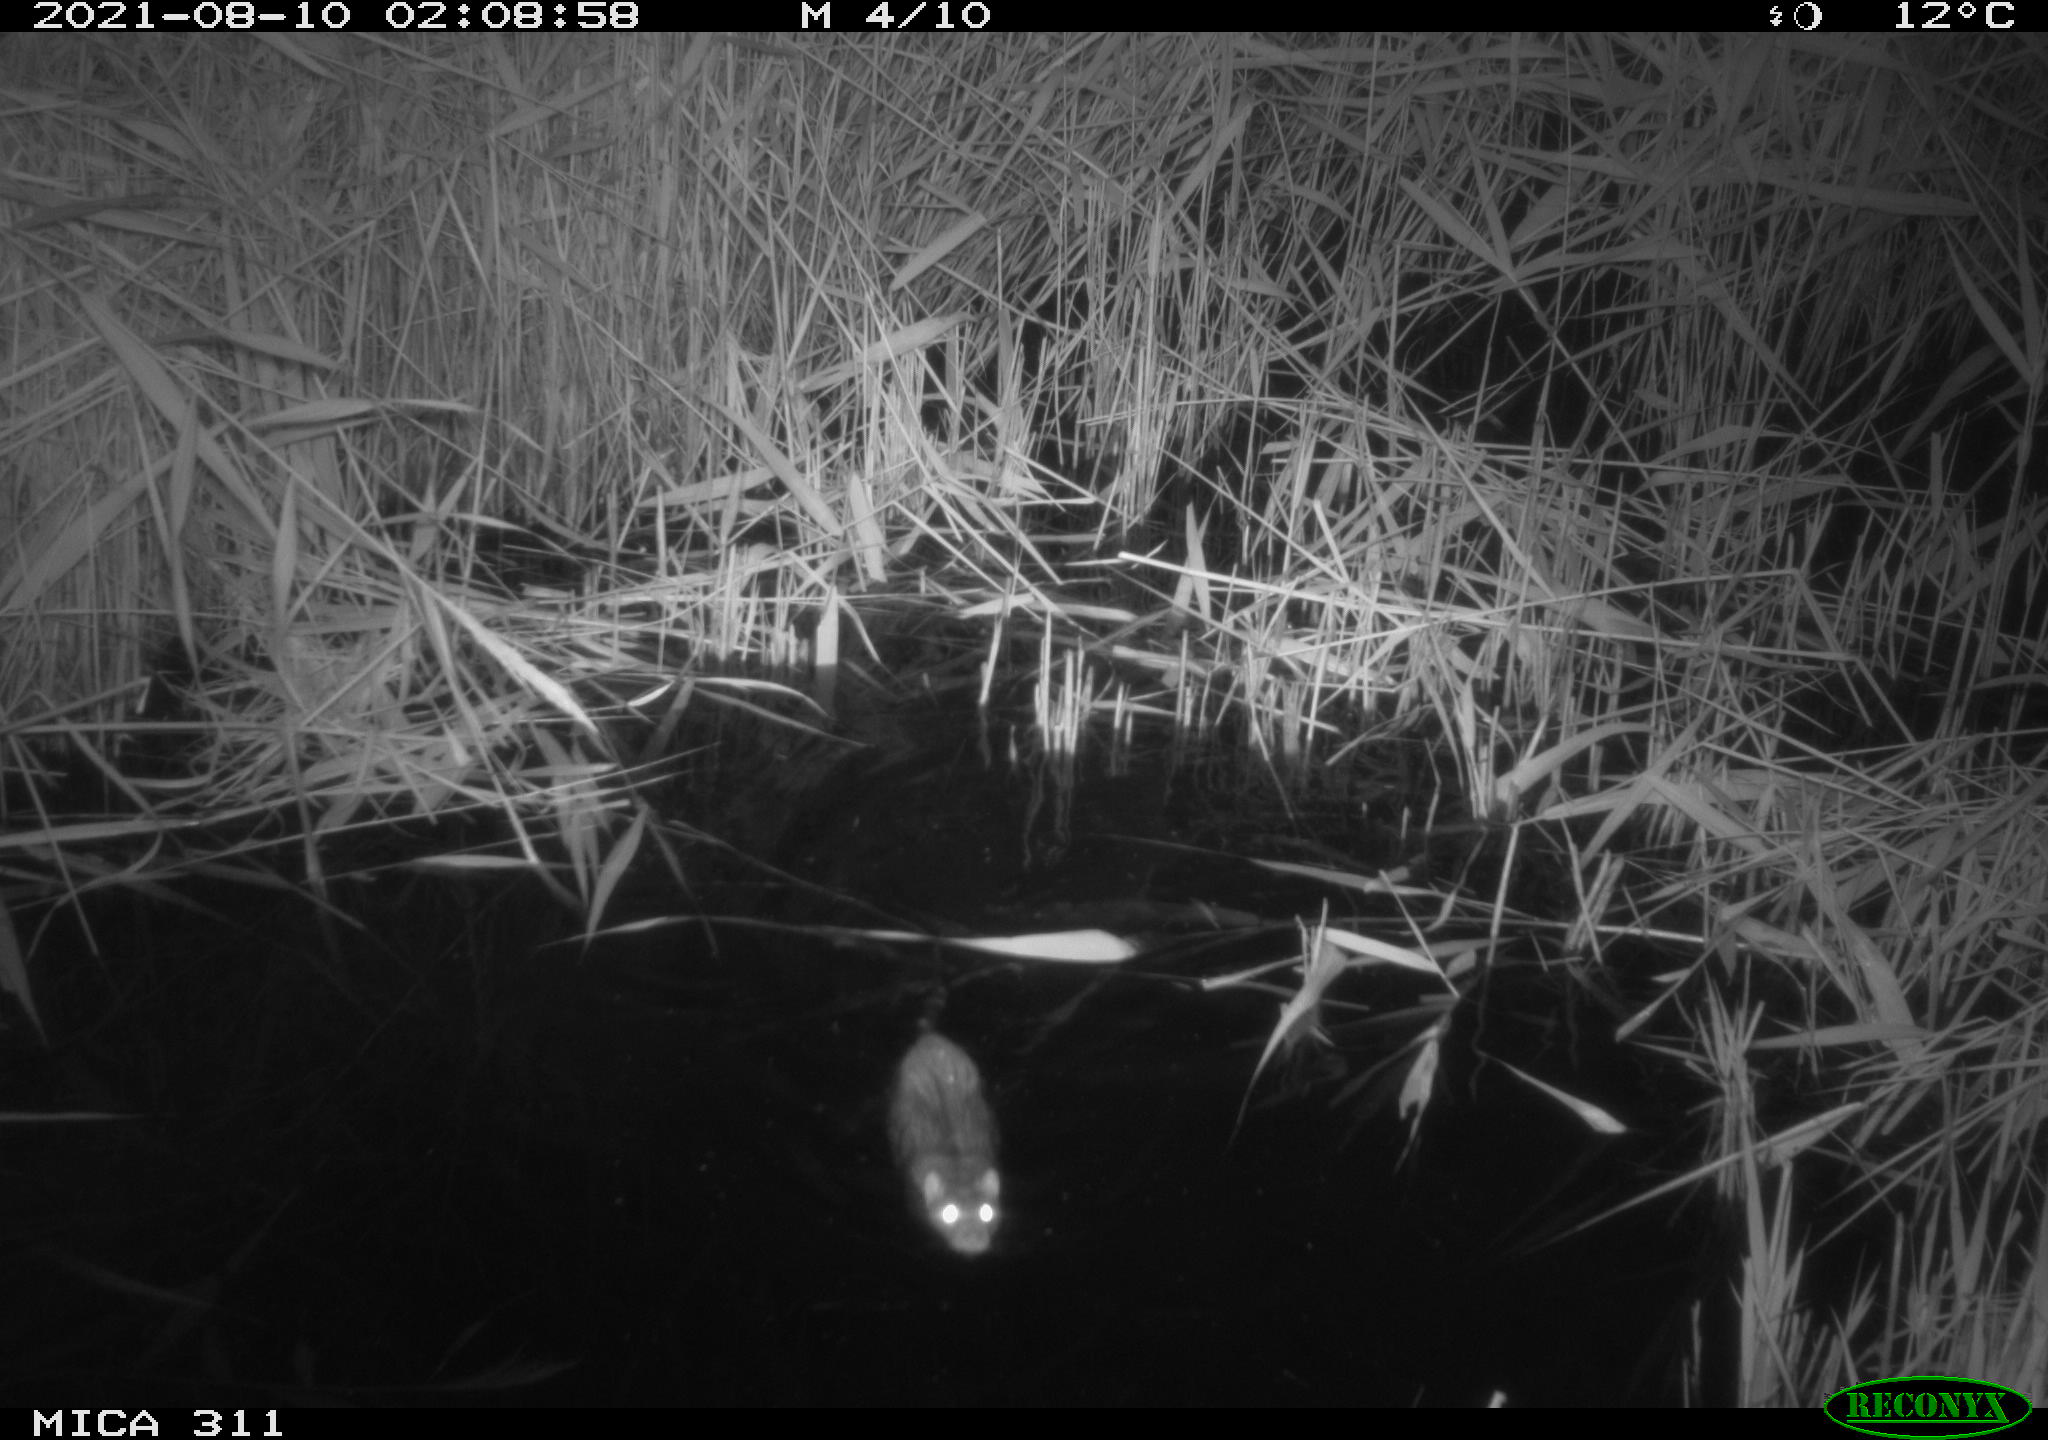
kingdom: Animalia
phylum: Chordata
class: Mammalia
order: Rodentia
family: Muridae
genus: Rattus
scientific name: Rattus norvegicus
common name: Brown rat
